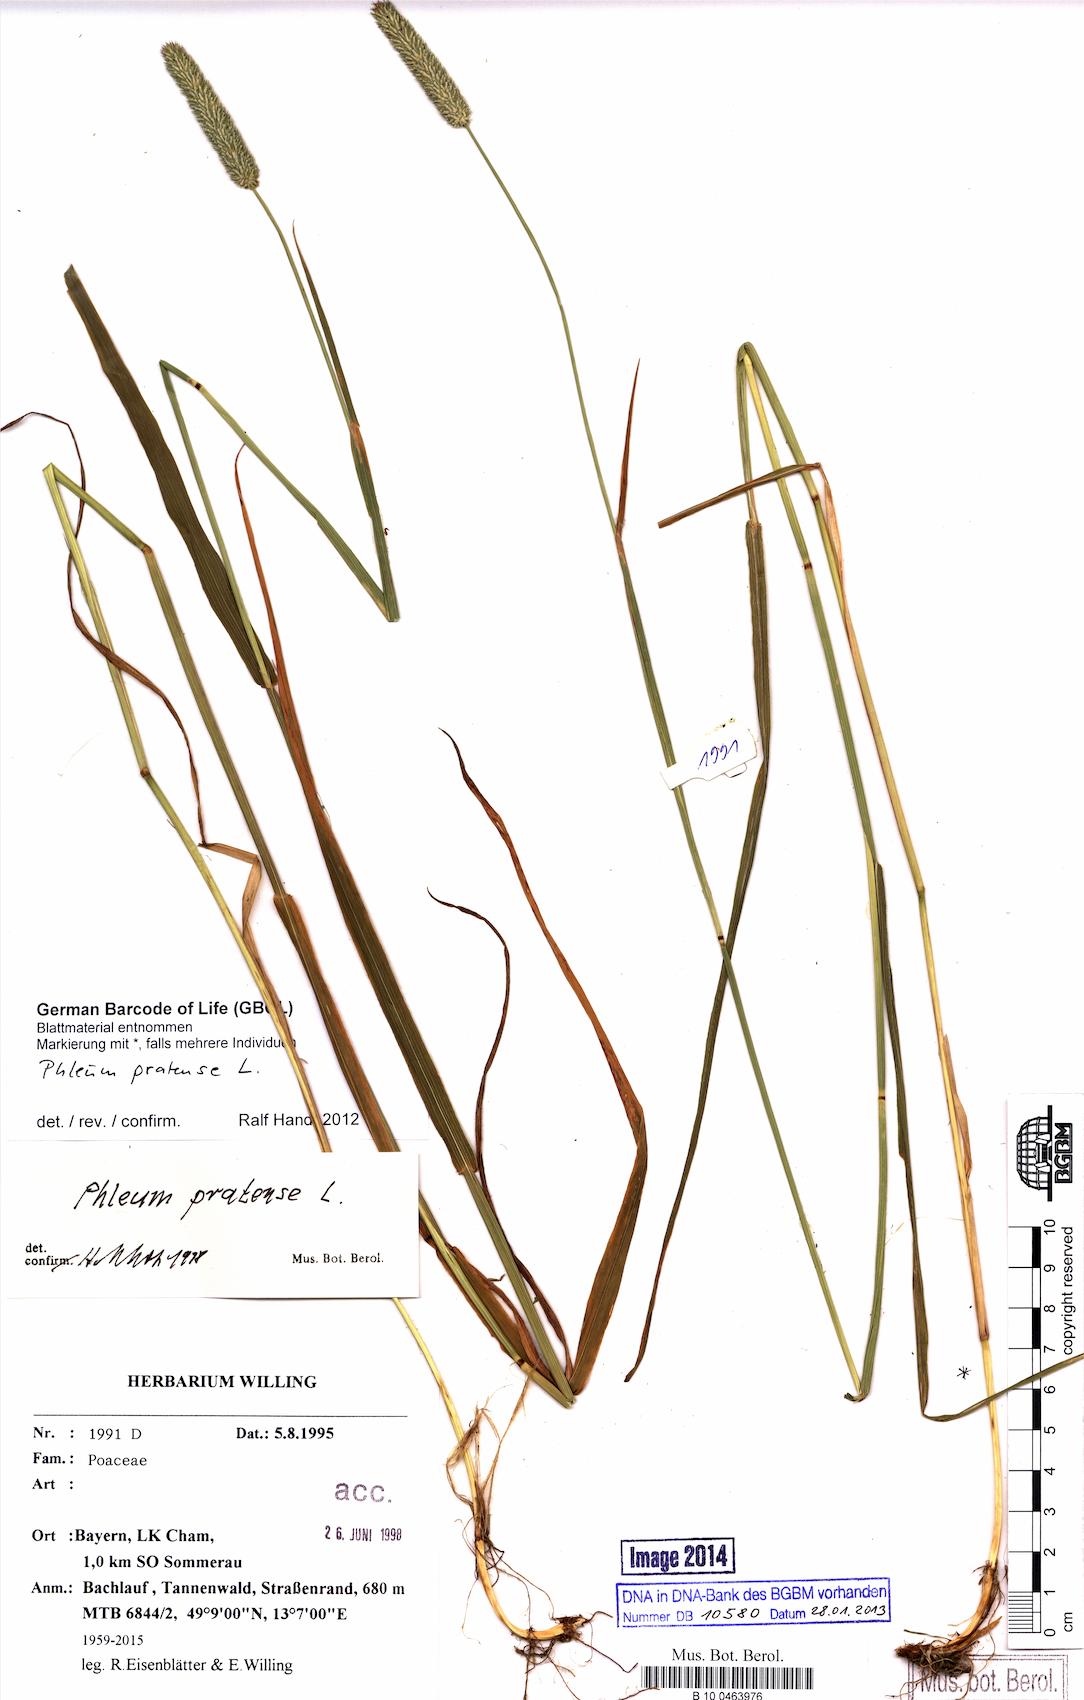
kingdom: Plantae
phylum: Tracheophyta
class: Liliopsida
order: Poales
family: Poaceae
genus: Phleum
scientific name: Phleum pratense
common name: Timothy grass
